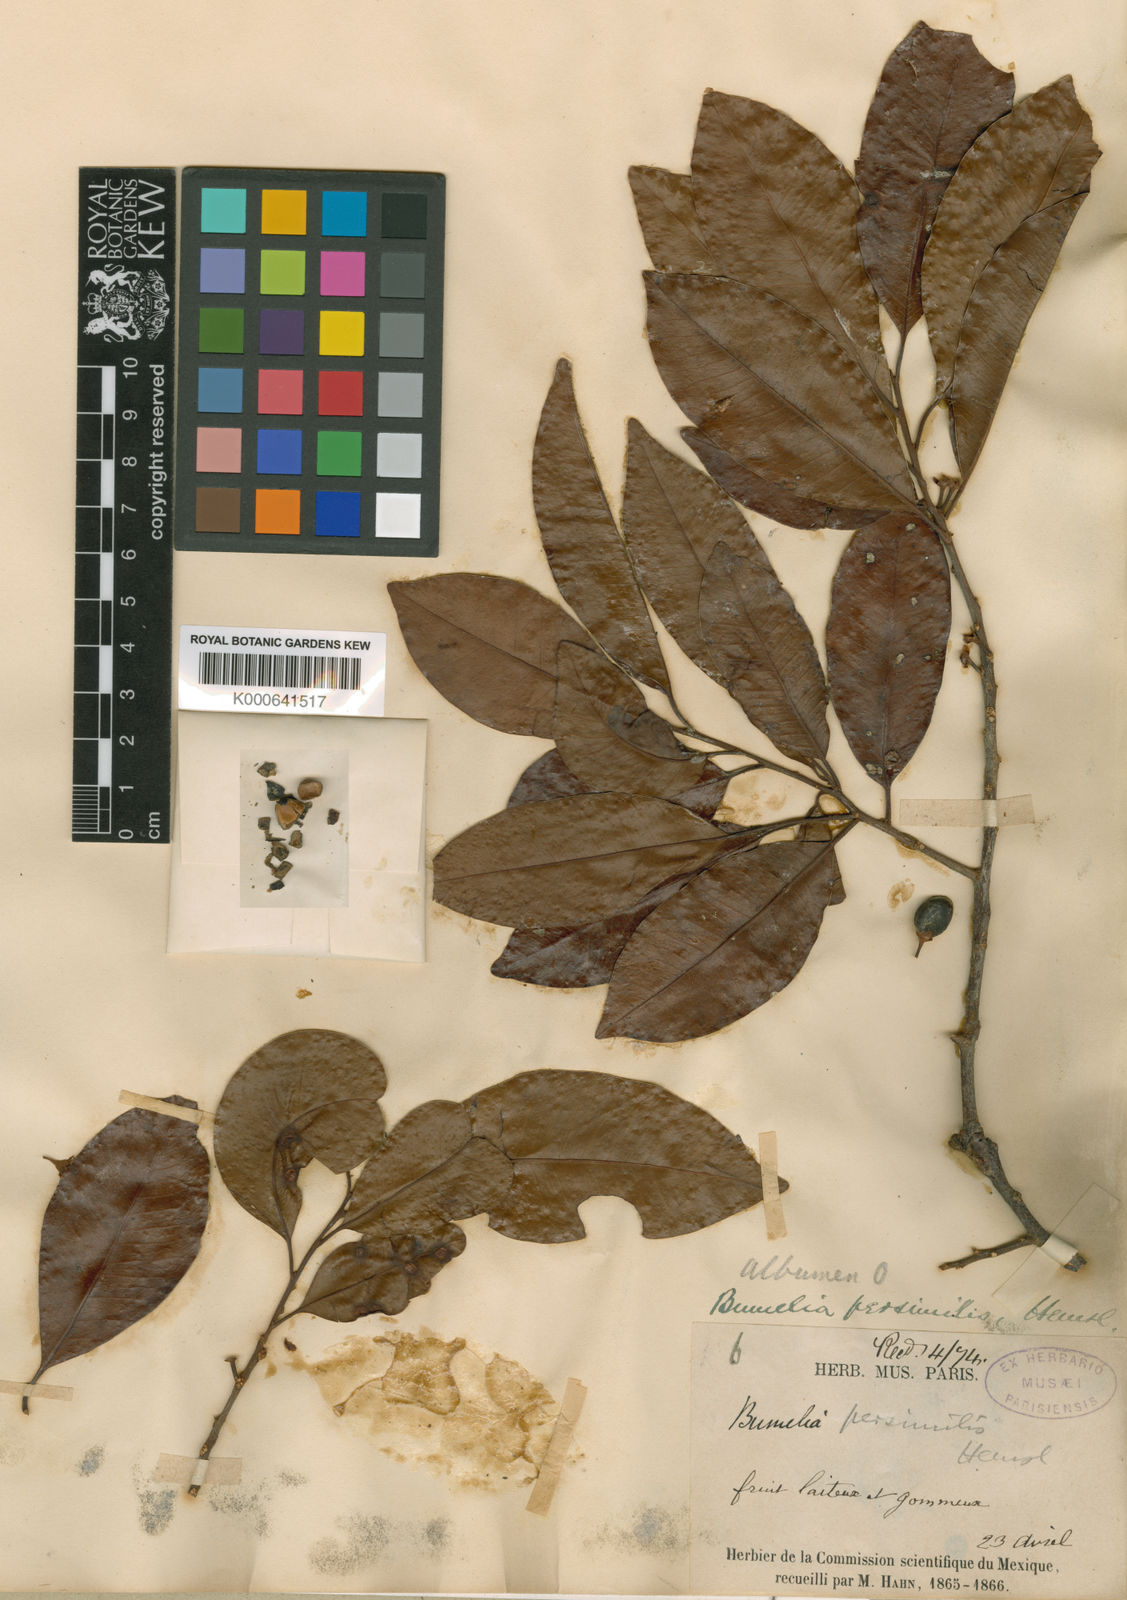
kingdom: Plantae
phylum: Tracheophyta
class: Magnoliopsida
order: Ericales
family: Sapotaceae
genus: Sideroxylon
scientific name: Sideroxylon persimile
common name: Bumelia
